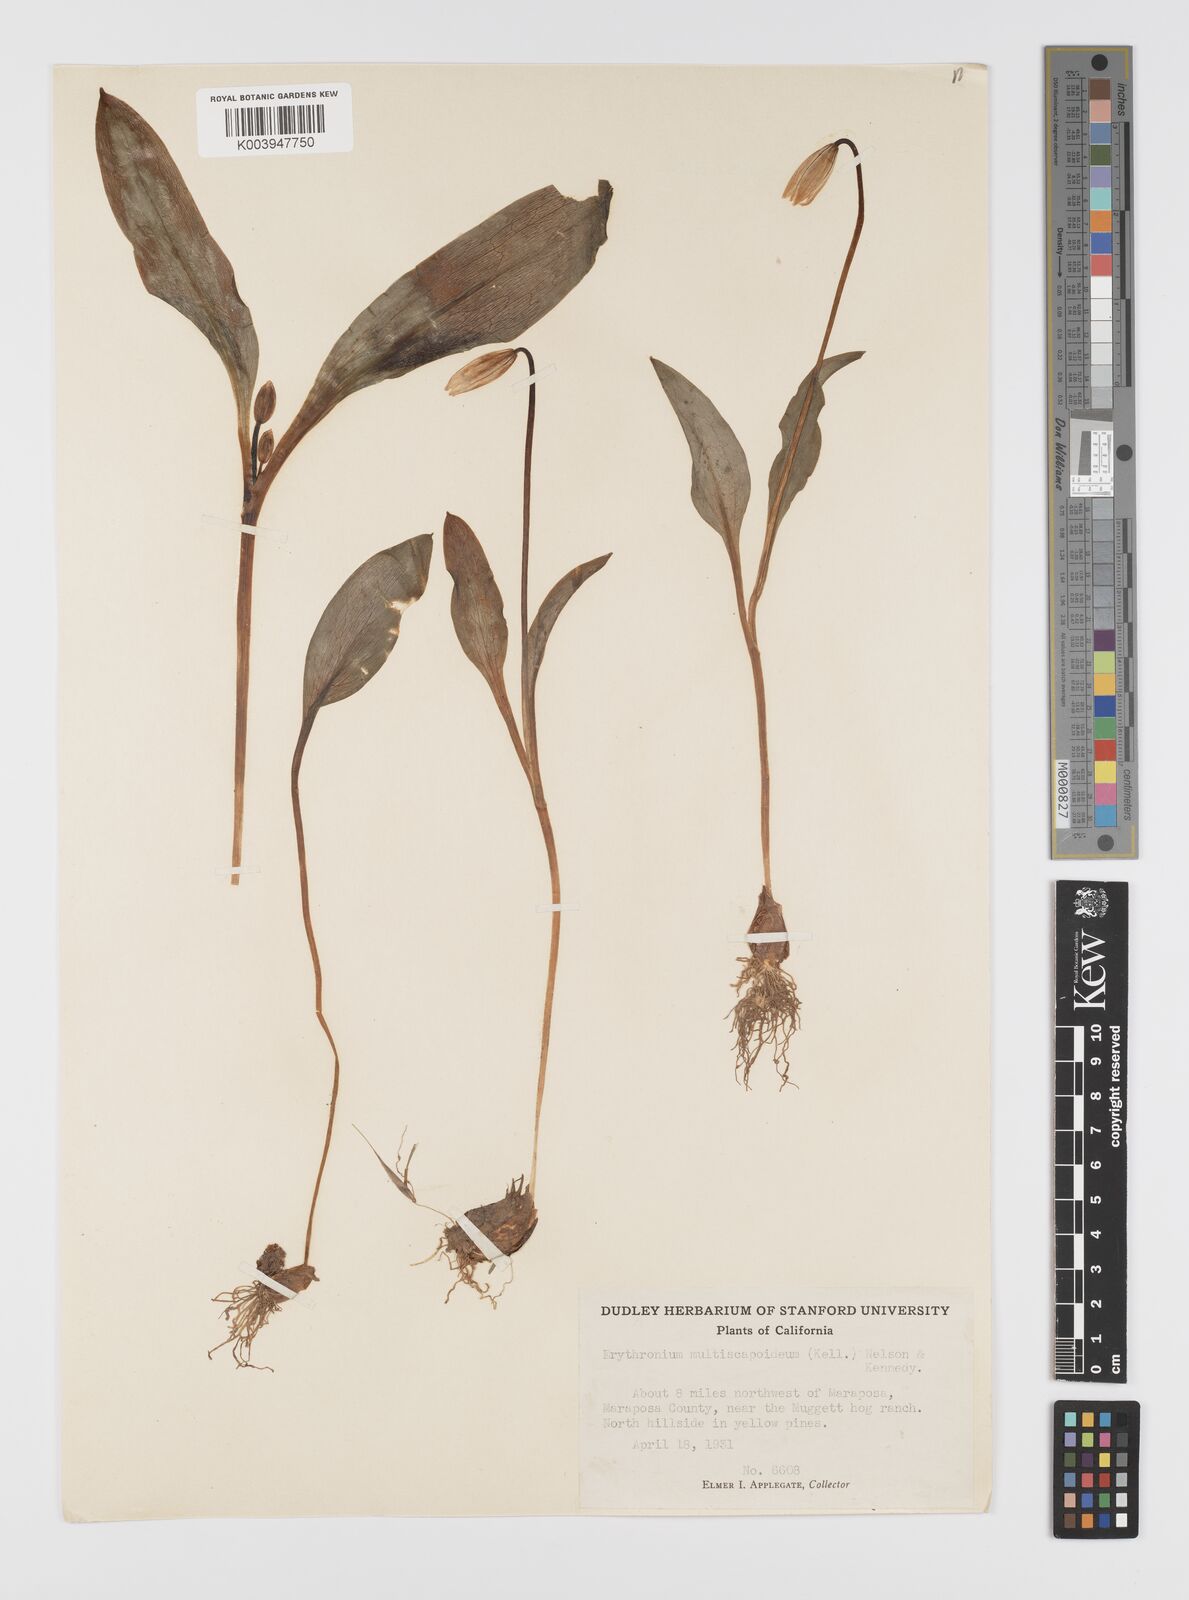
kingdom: Plantae
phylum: Tracheophyta
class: Liliopsida
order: Liliales
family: Liliaceae
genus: Erythronium
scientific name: Erythronium multiscapideum
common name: Sierra foothills fawn-lily
